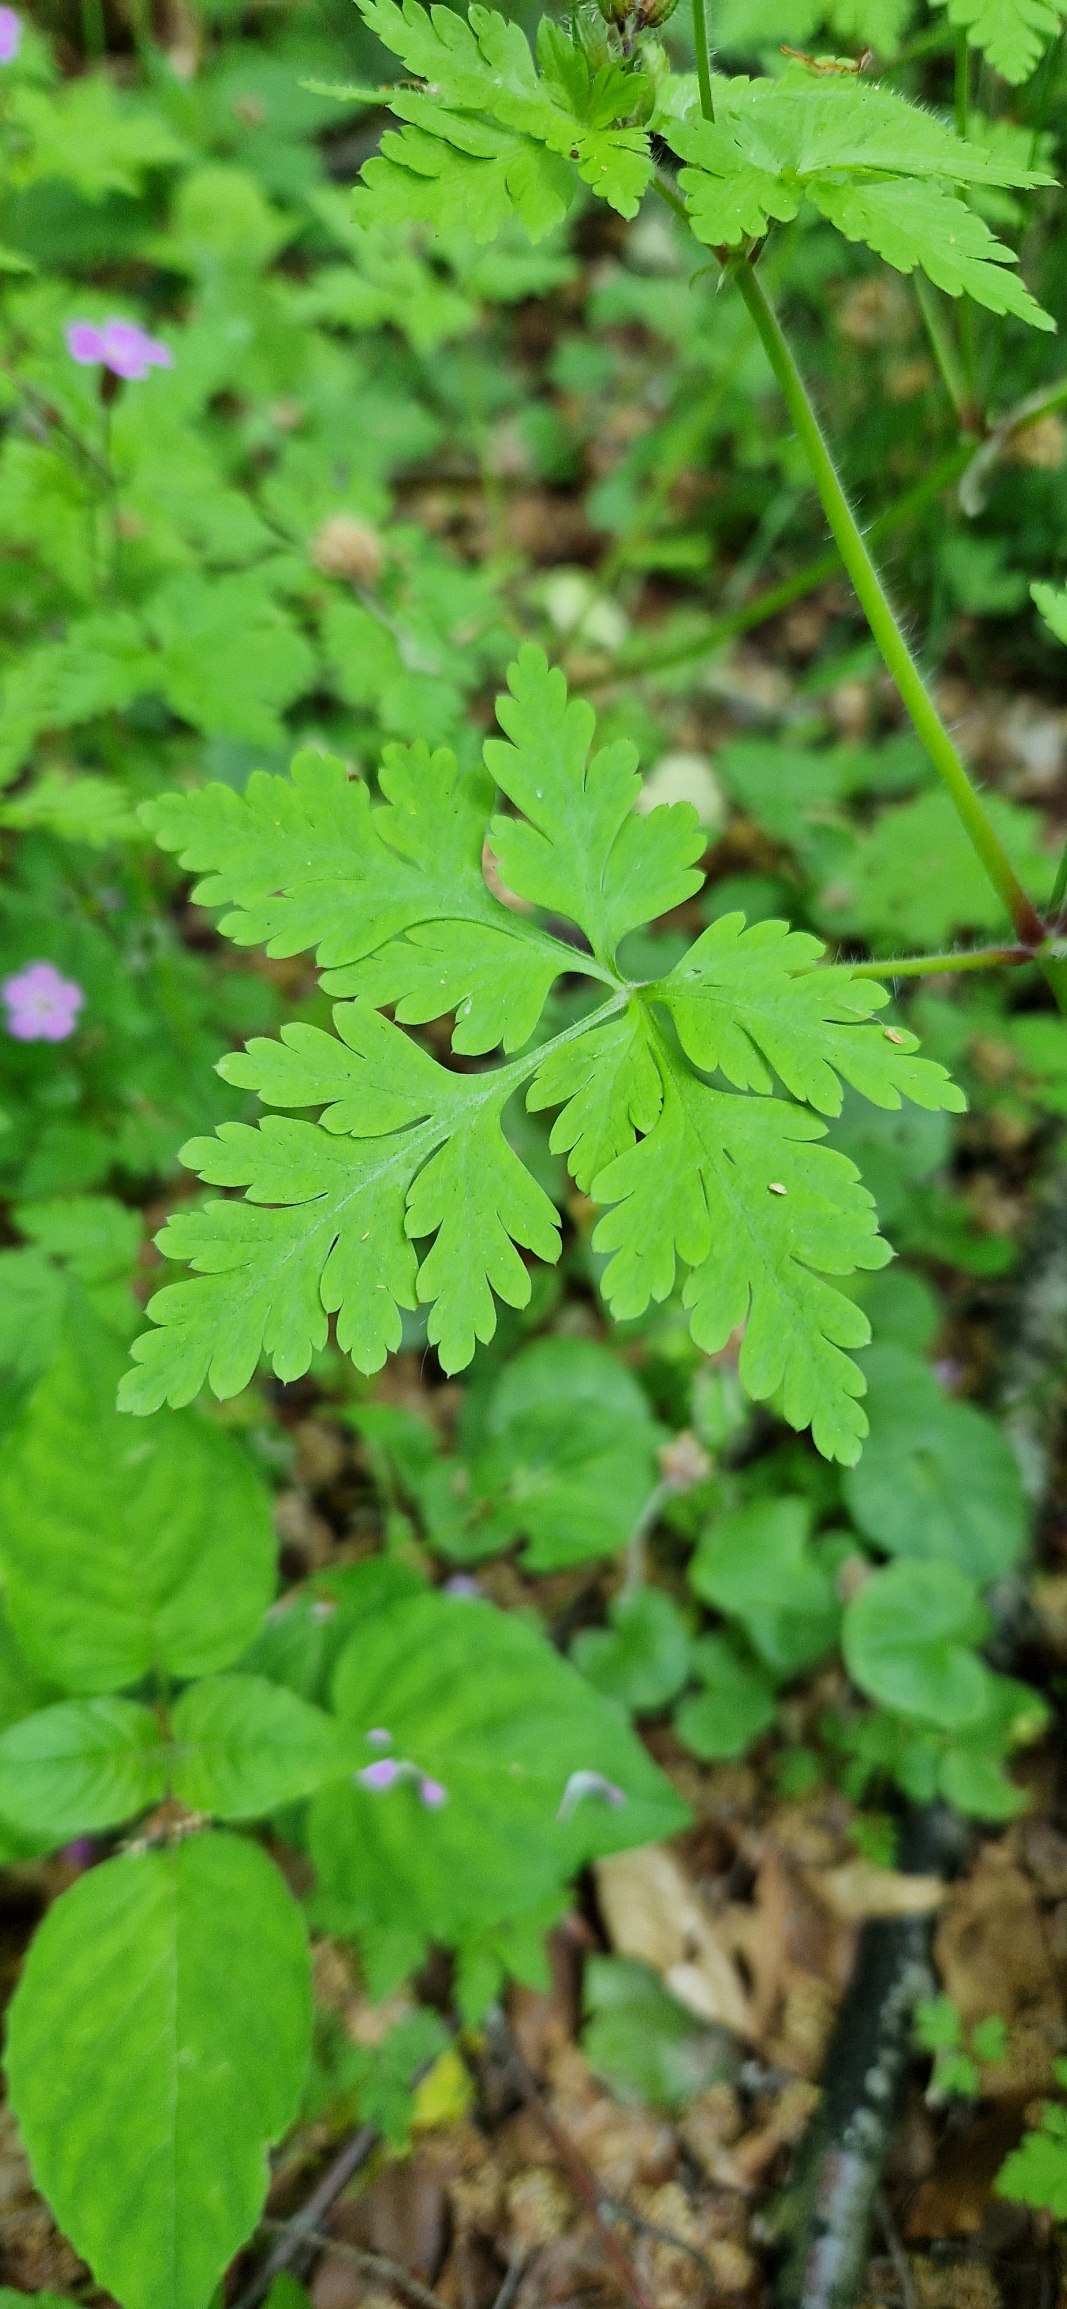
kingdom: Plantae
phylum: Tracheophyta
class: Magnoliopsida
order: Geraniales
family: Geraniaceae
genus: Geranium
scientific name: Geranium robertianum
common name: Stinkende storkenæb
